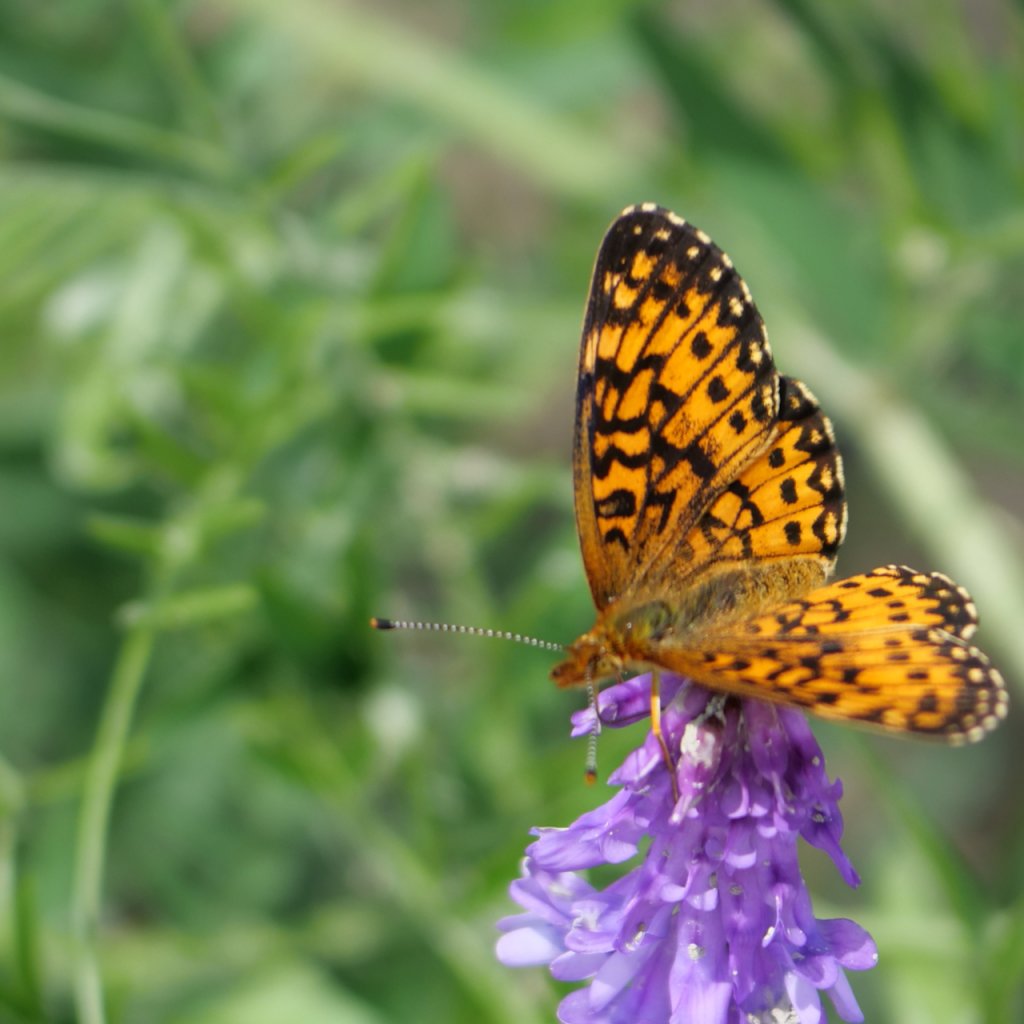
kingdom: Animalia
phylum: Arthropoda
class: Insecta
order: Lepidoptera
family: Nymphalidae
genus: Boloria
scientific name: Boloria selene
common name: Silver-bordered Fritillary
